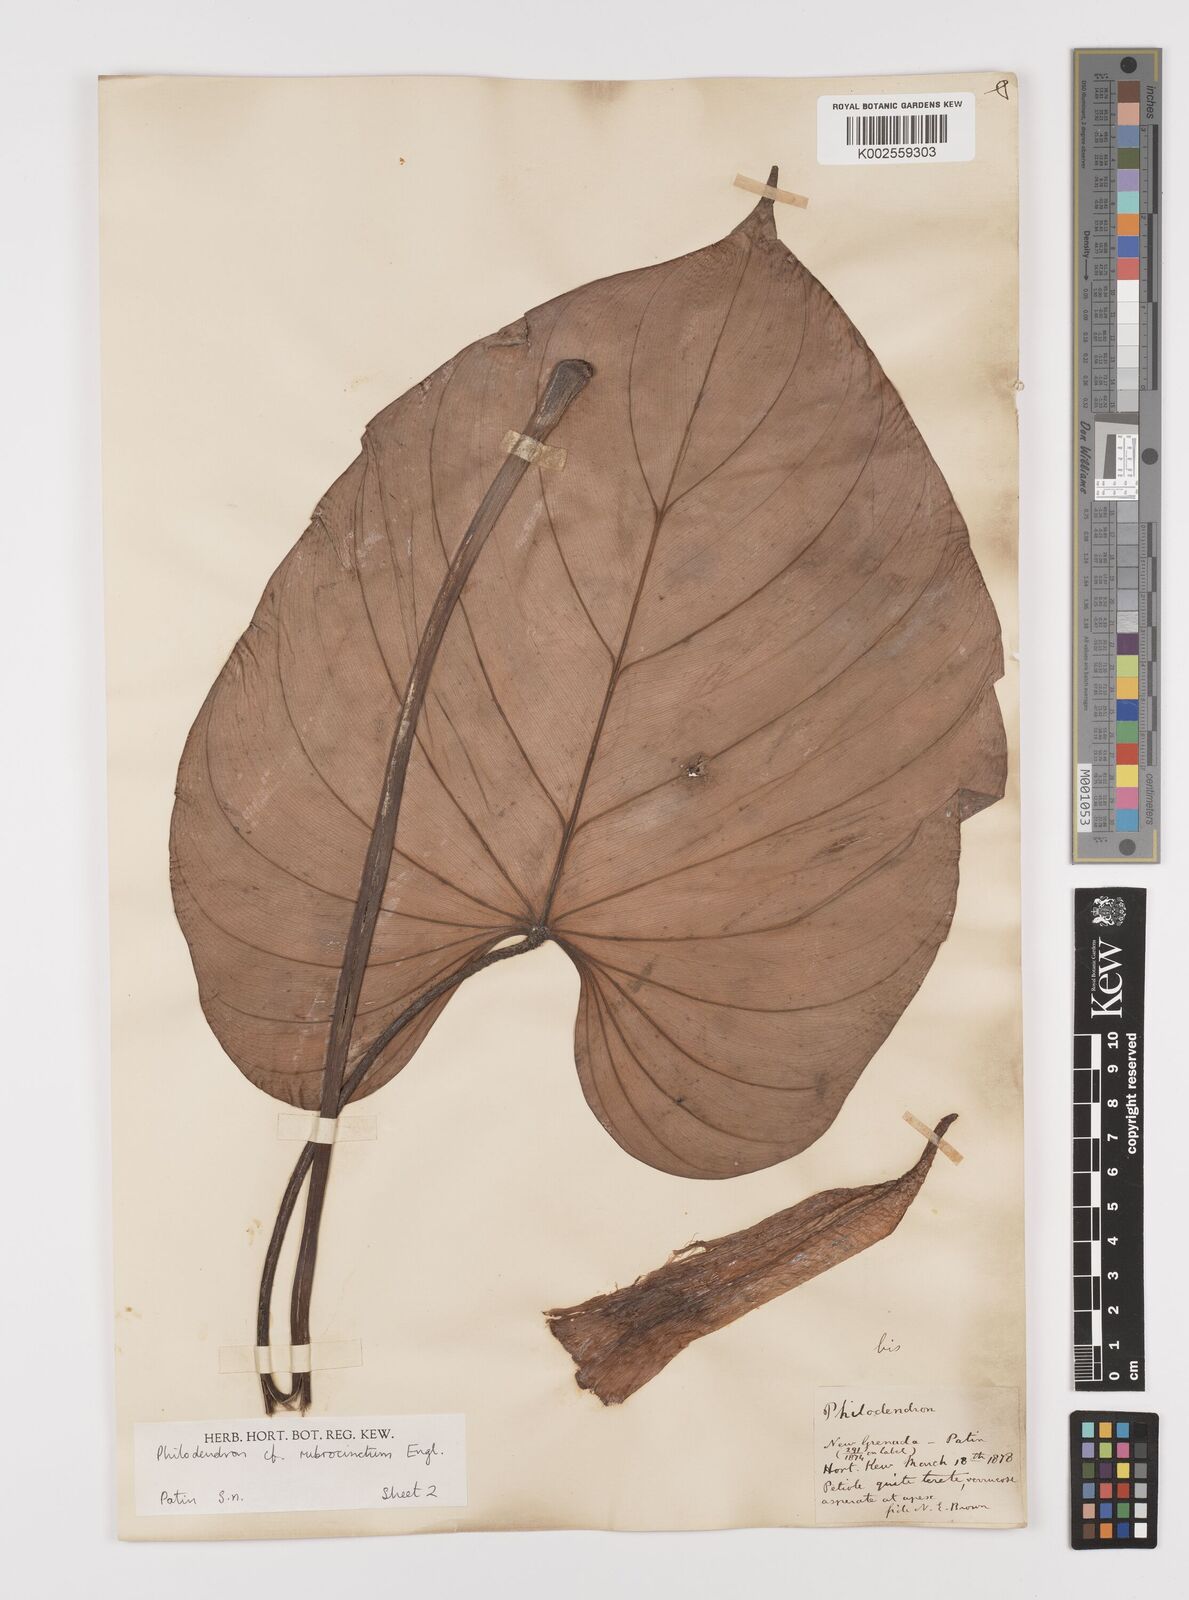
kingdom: Plantae
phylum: Tracheophyta
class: Liliopsida
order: Alismatales
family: Araceae
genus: Philodendron
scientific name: Philodendron rubrocinctum
